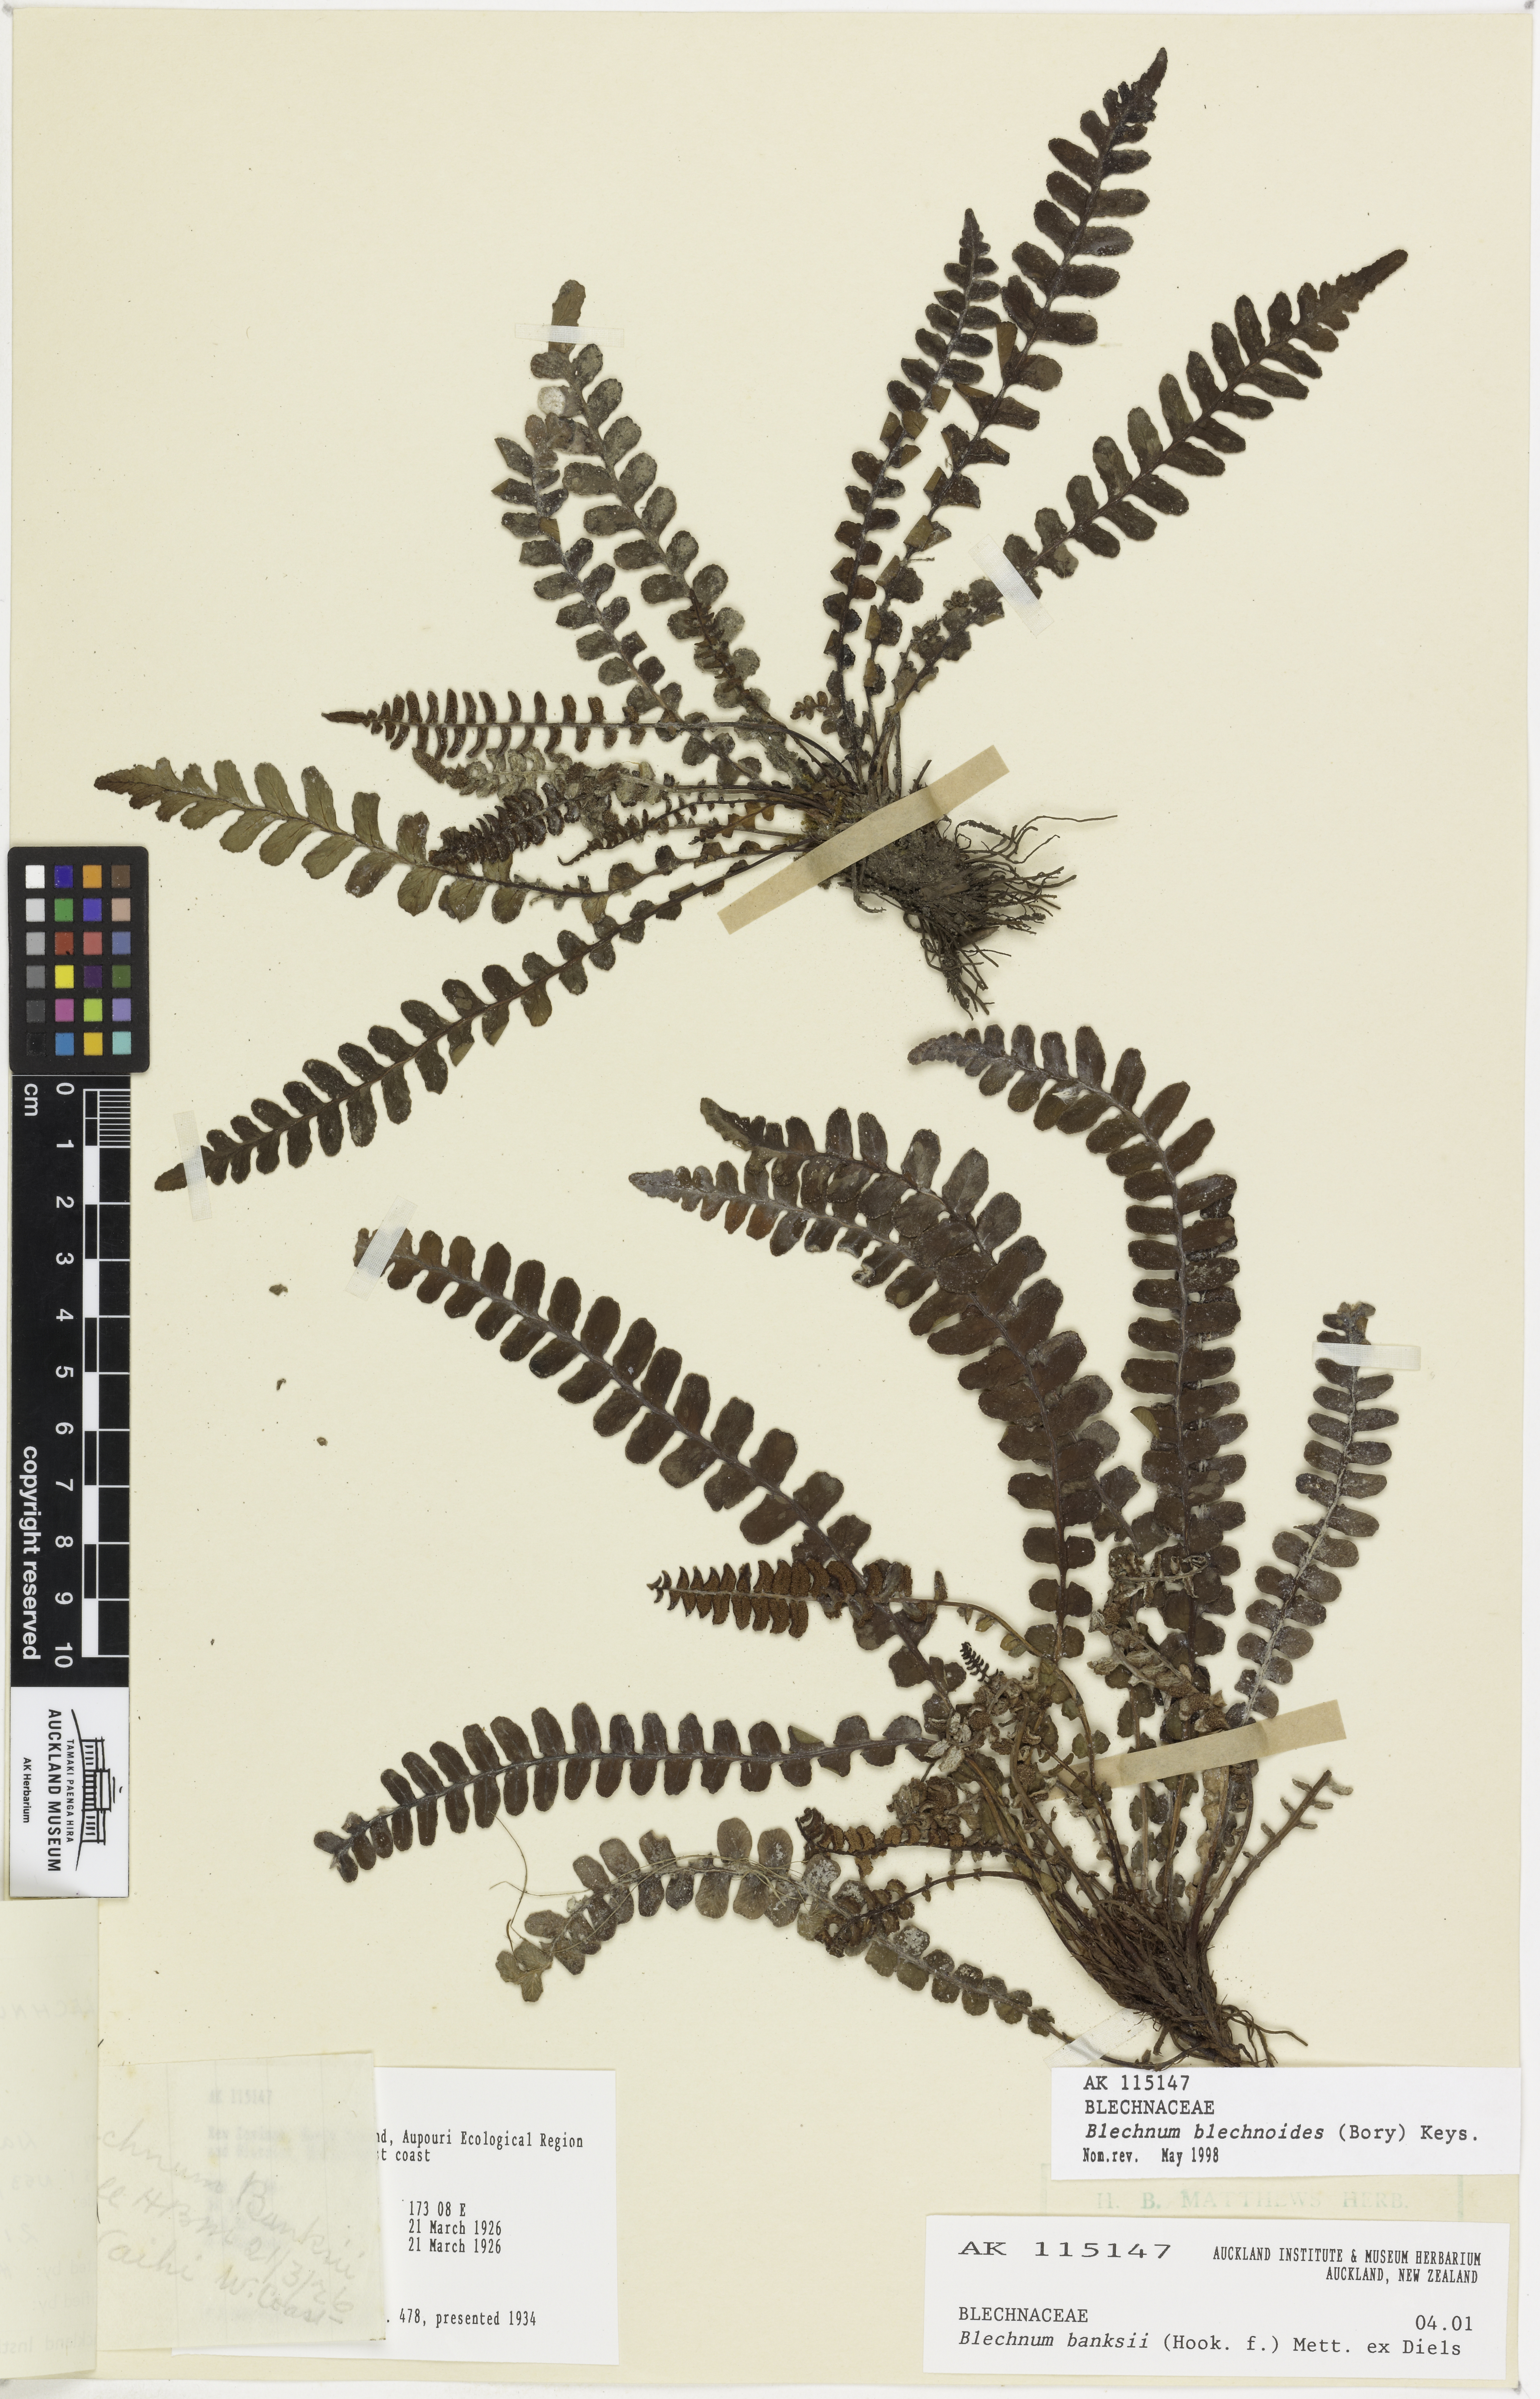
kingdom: Plantae
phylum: Tracheophyta
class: Polypodiopsida
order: Polypodiales
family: Blechnaceae
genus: Austroblechnum
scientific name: Austroblechnum leyboldtianum
